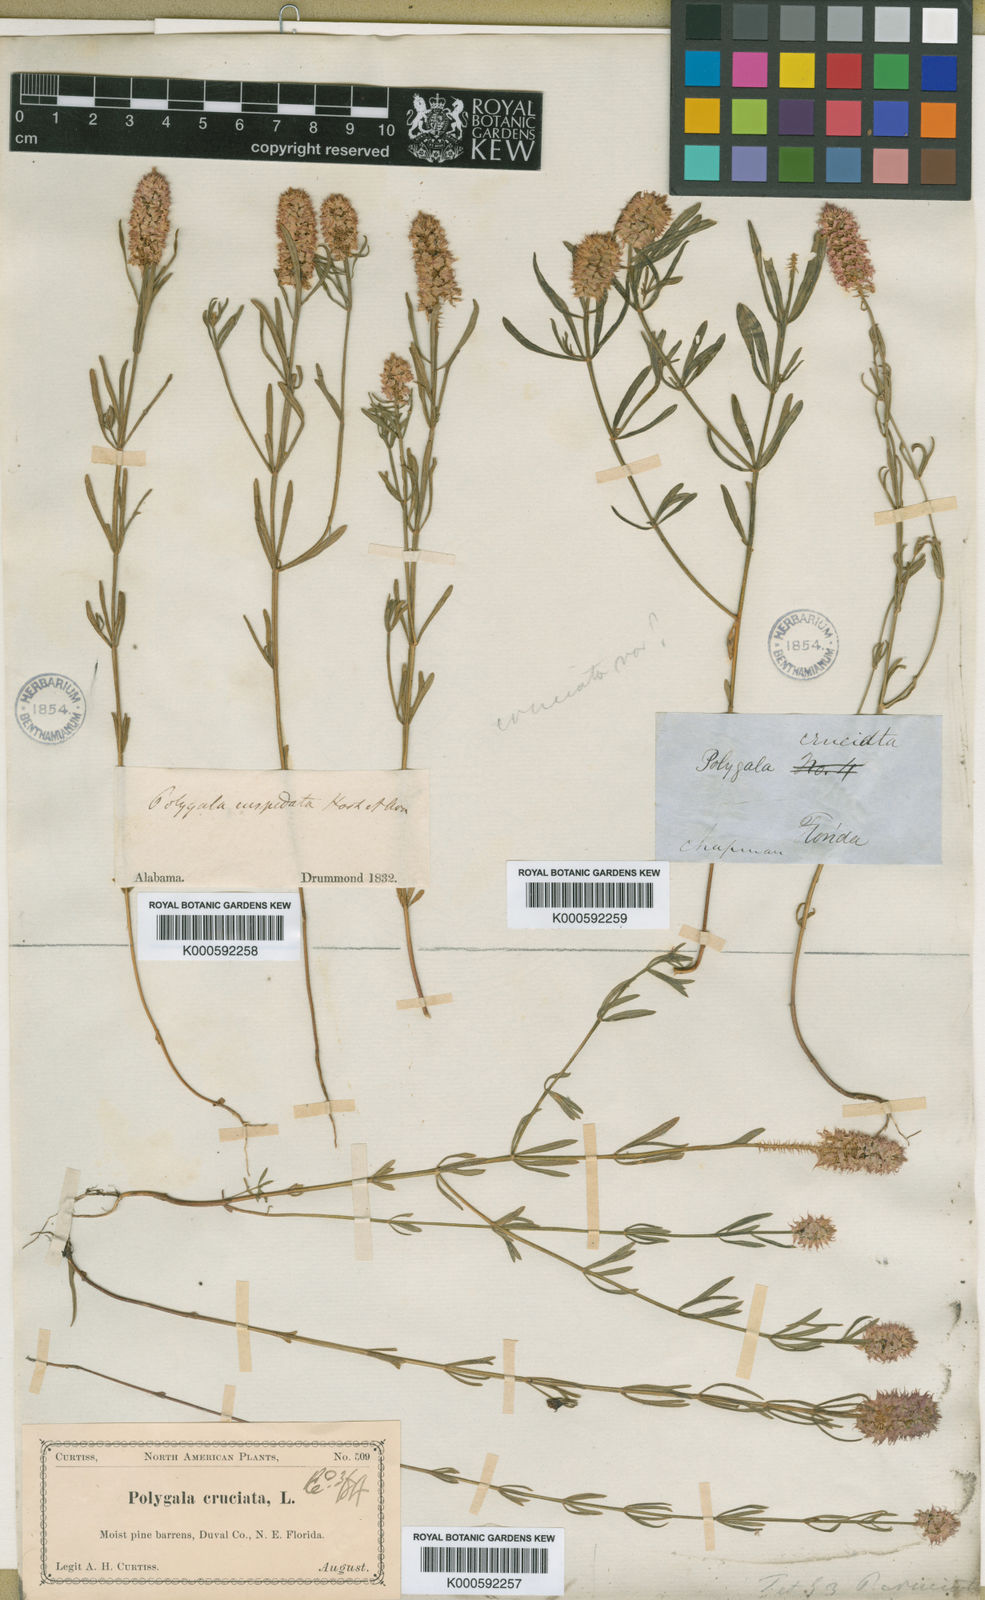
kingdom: Plantae
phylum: Tracheophyta
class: Magnoliopsida
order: Fabales
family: Polygalaceae
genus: Polygala
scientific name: Polygala cruciata
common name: Drumheads
